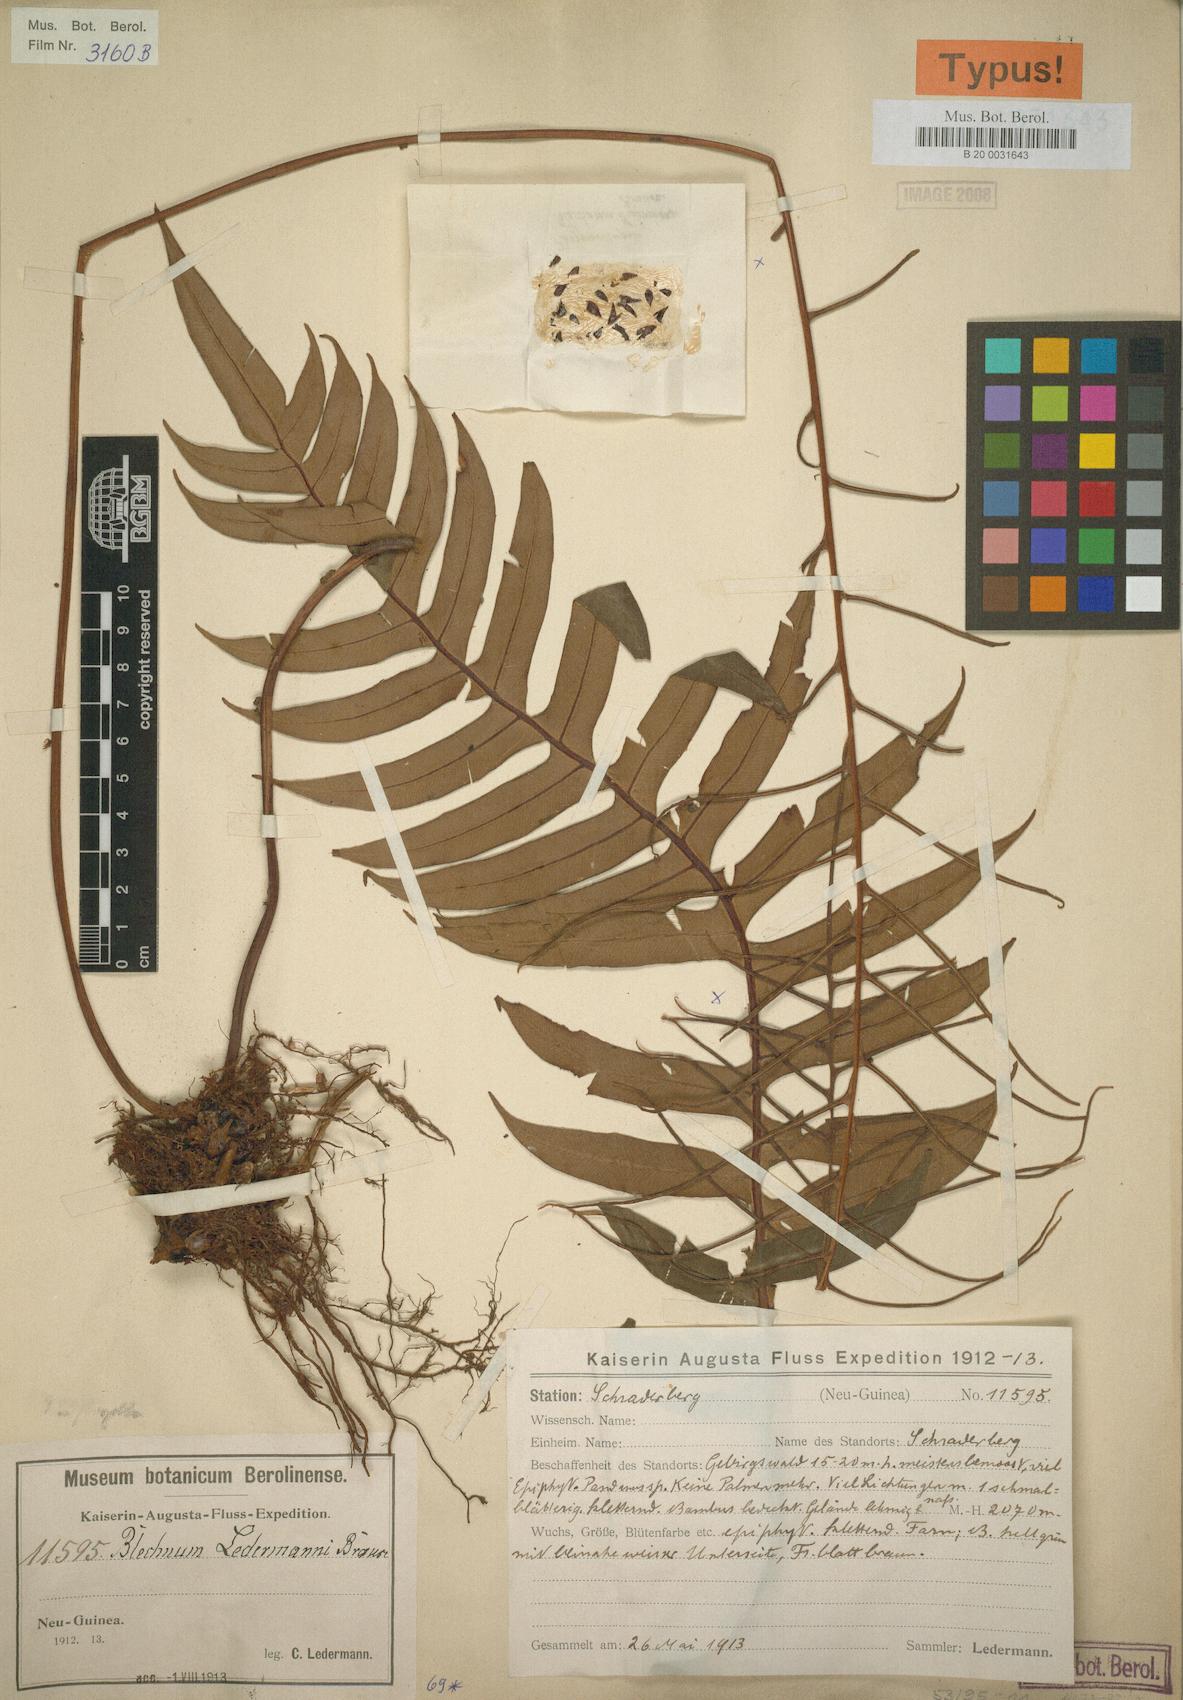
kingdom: Plantae
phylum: Tracheophyta
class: Polypodiopsida
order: Polypodiales
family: Blechnaceae
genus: Austroblechnum
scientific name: Austroblechnum keysseri
